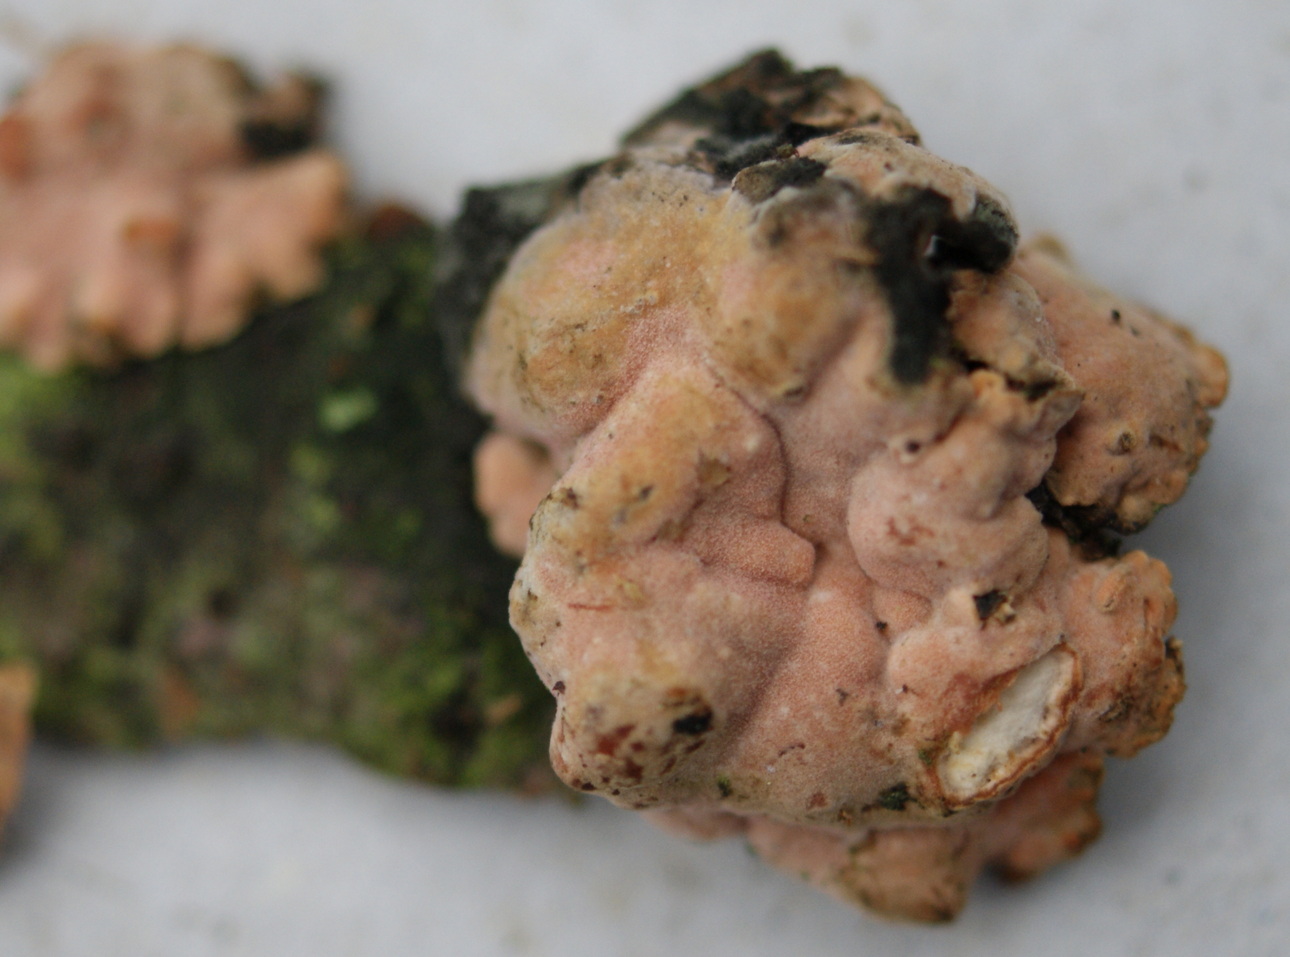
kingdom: Fungi
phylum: Basidiomycota
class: Agaricomycetes
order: Russulales
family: Stereaceae
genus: Aleurodiscus
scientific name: Aleurodiscus amorphus
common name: orange skiveskorpe
